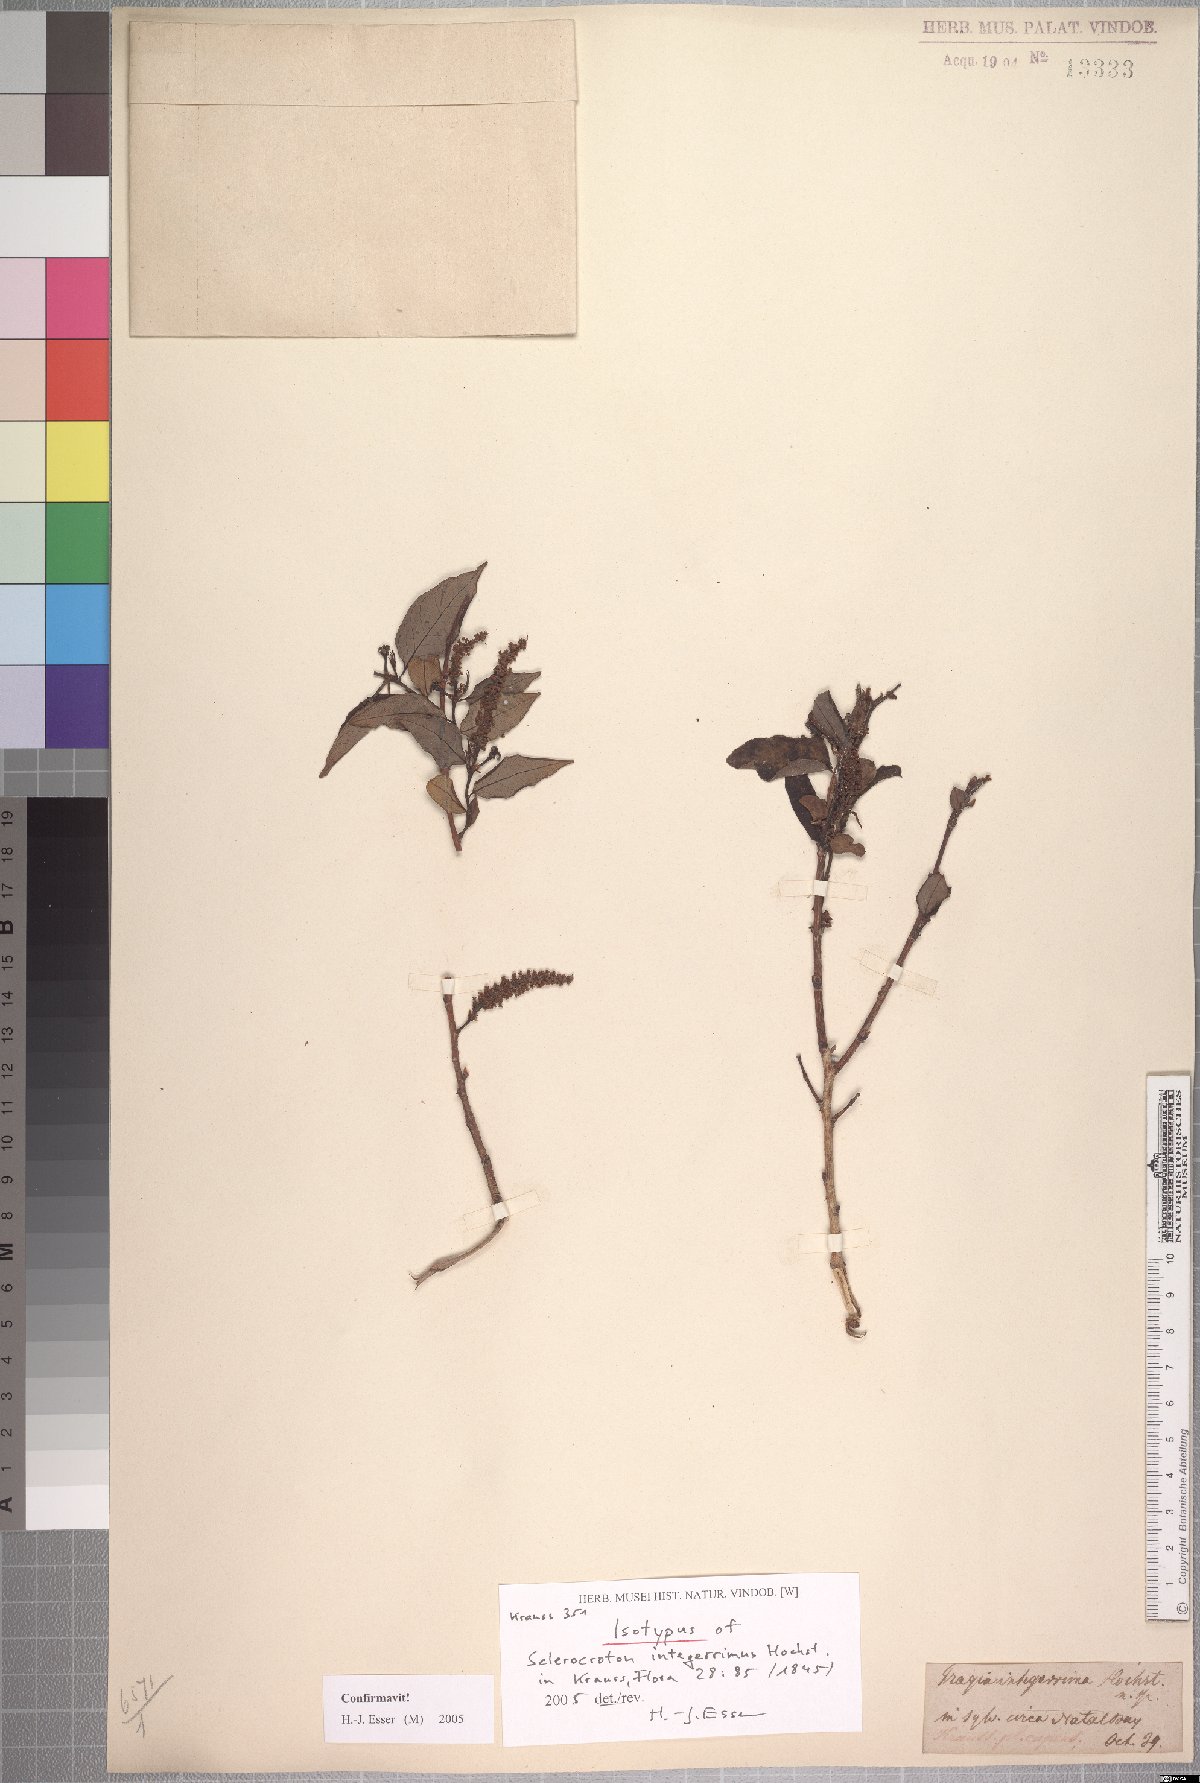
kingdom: Plantae
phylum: Tracheophyta
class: Magnoliopsida
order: Malpighiales
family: Euphorbiaceae
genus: Sclerocroton
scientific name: Sclerocroton integerrimus
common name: Duiker berry
